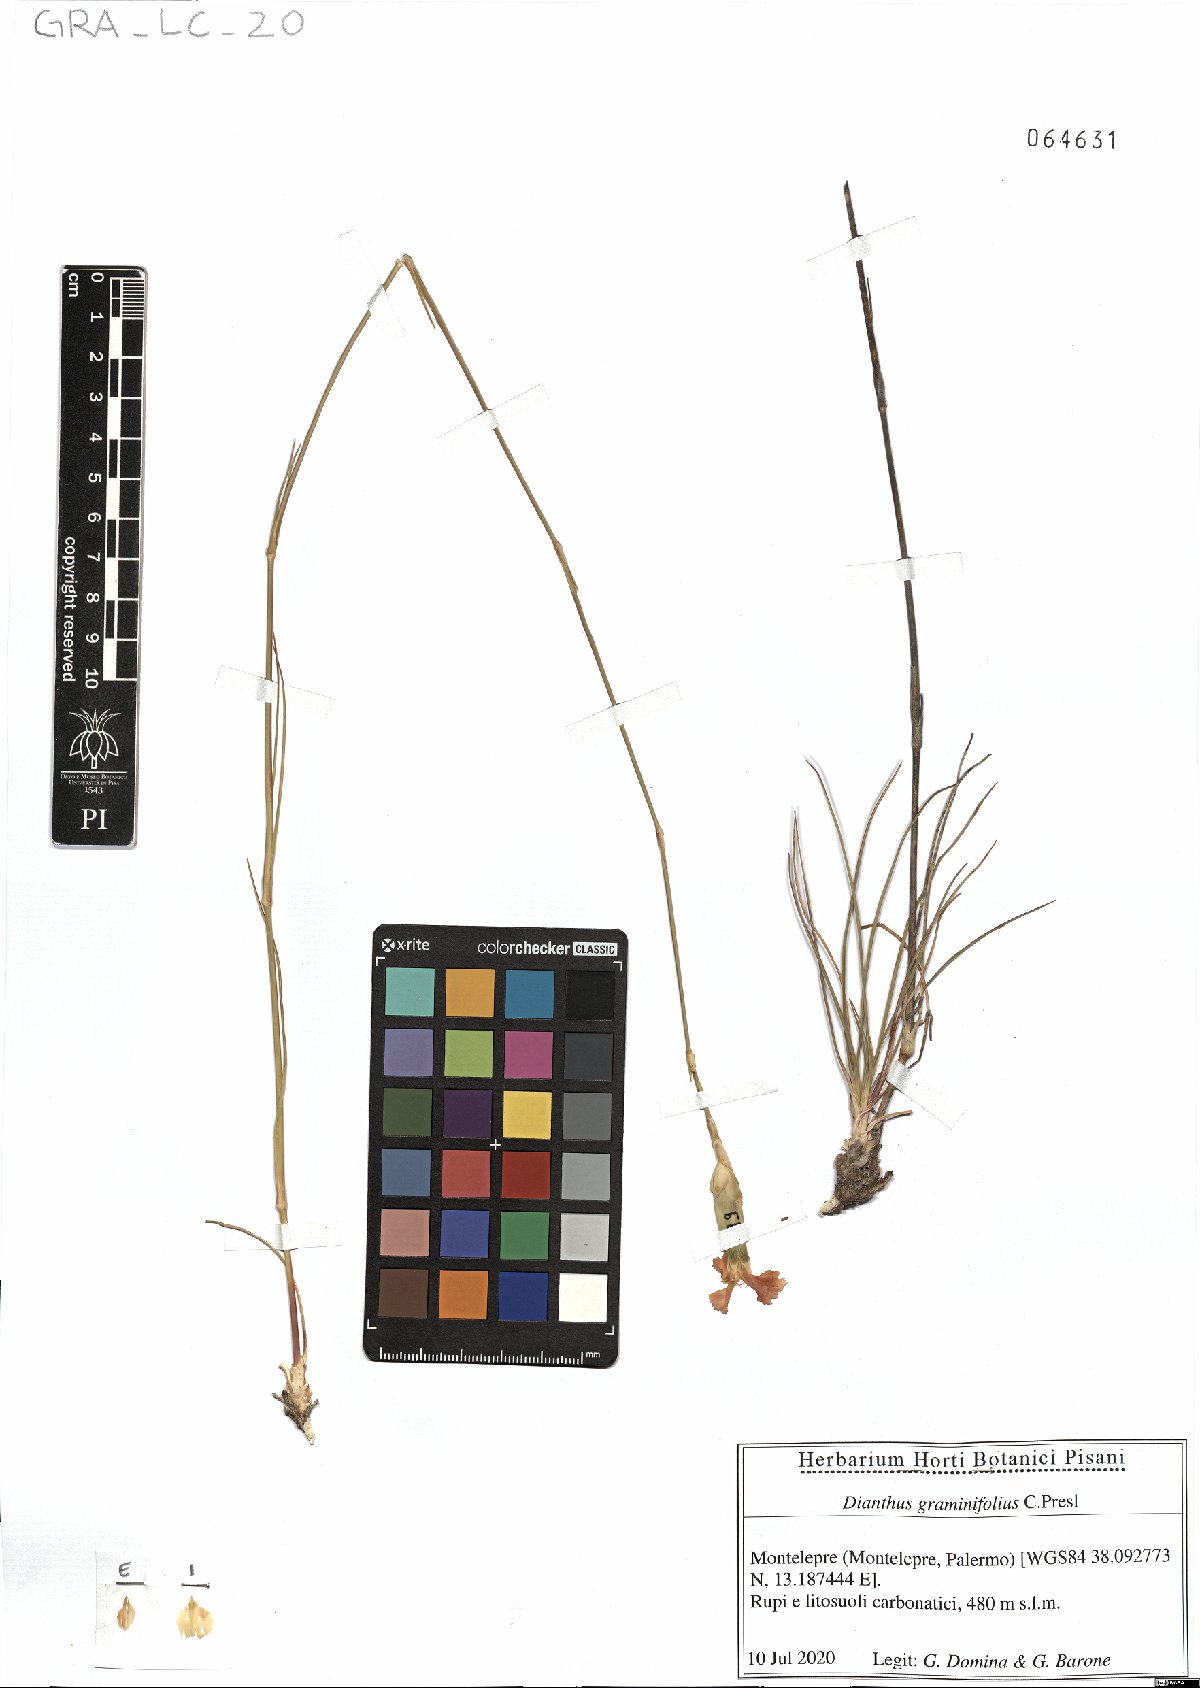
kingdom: Plantae
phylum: Tracheophyta
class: Magnoliopsida
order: Caryophyllales
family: Caryophyllaceae
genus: Dianthus
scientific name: Dianthus graminifolius
